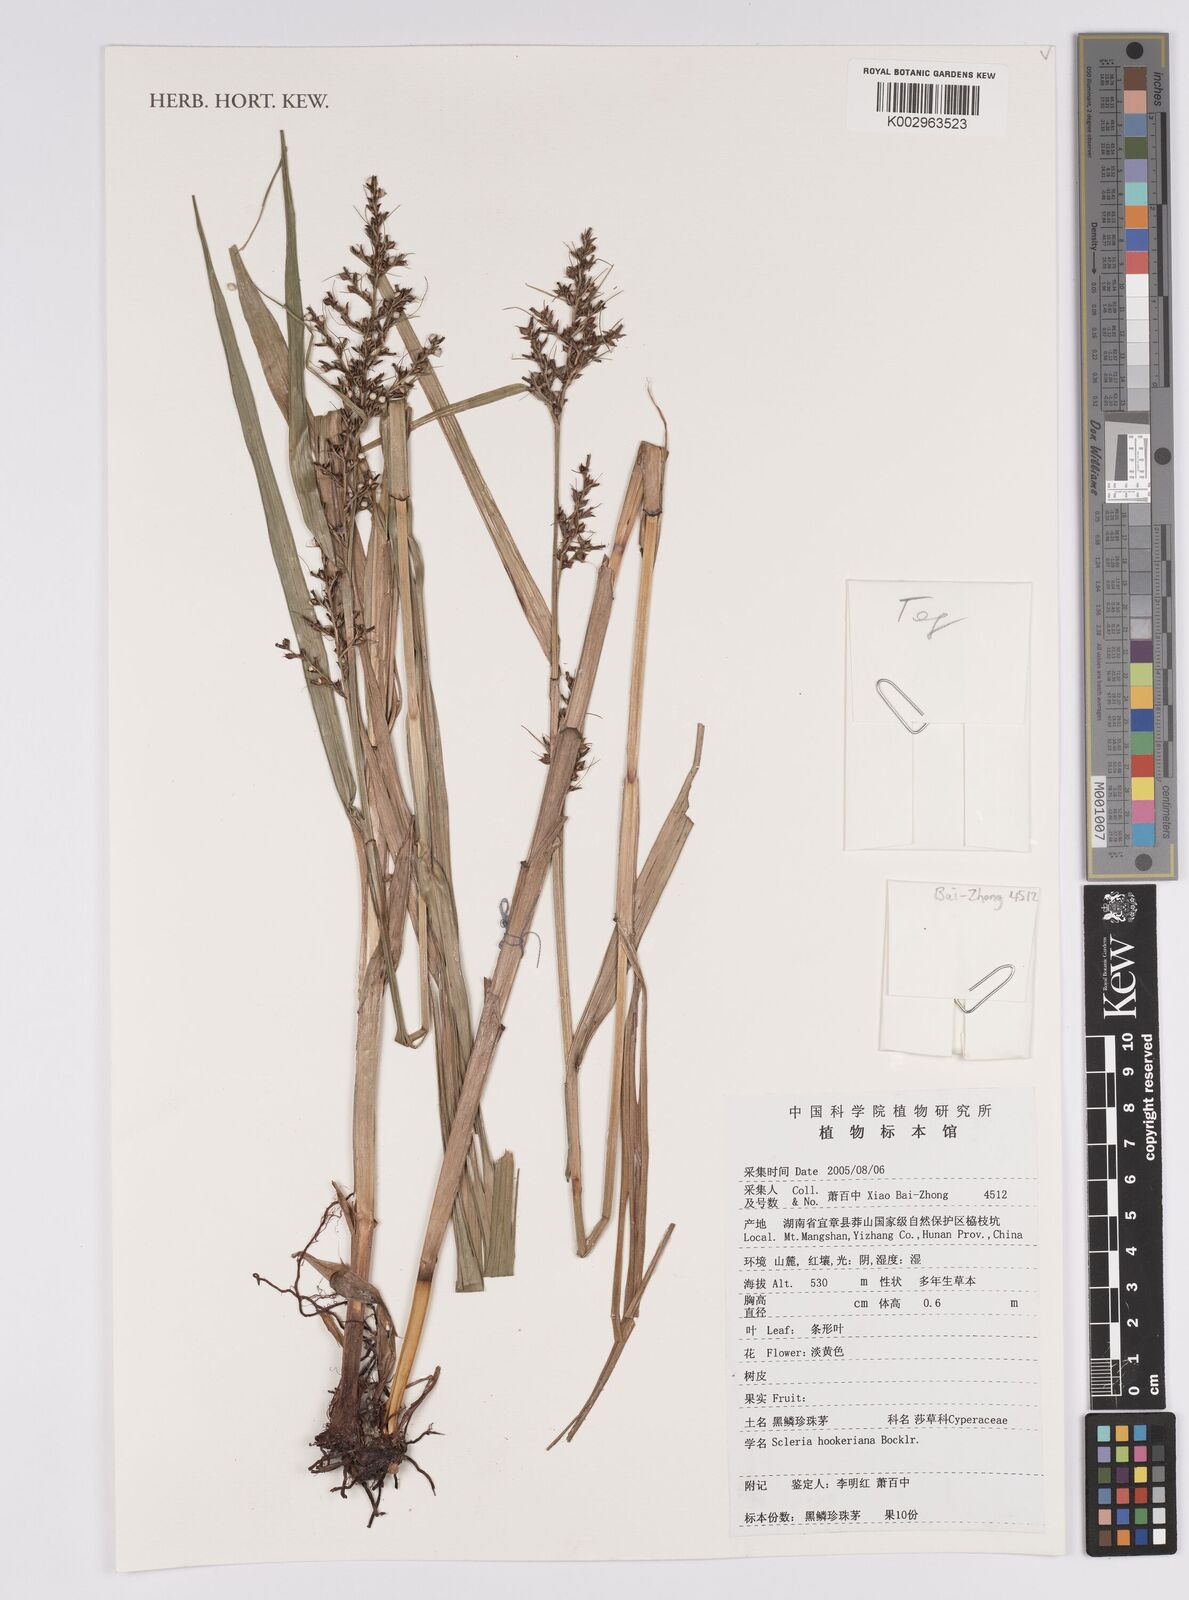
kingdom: Plantae
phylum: Tracheophyta
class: Liliopsida
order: Poales
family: Cyperaceae
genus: Scleria
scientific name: Scleria terrestris
